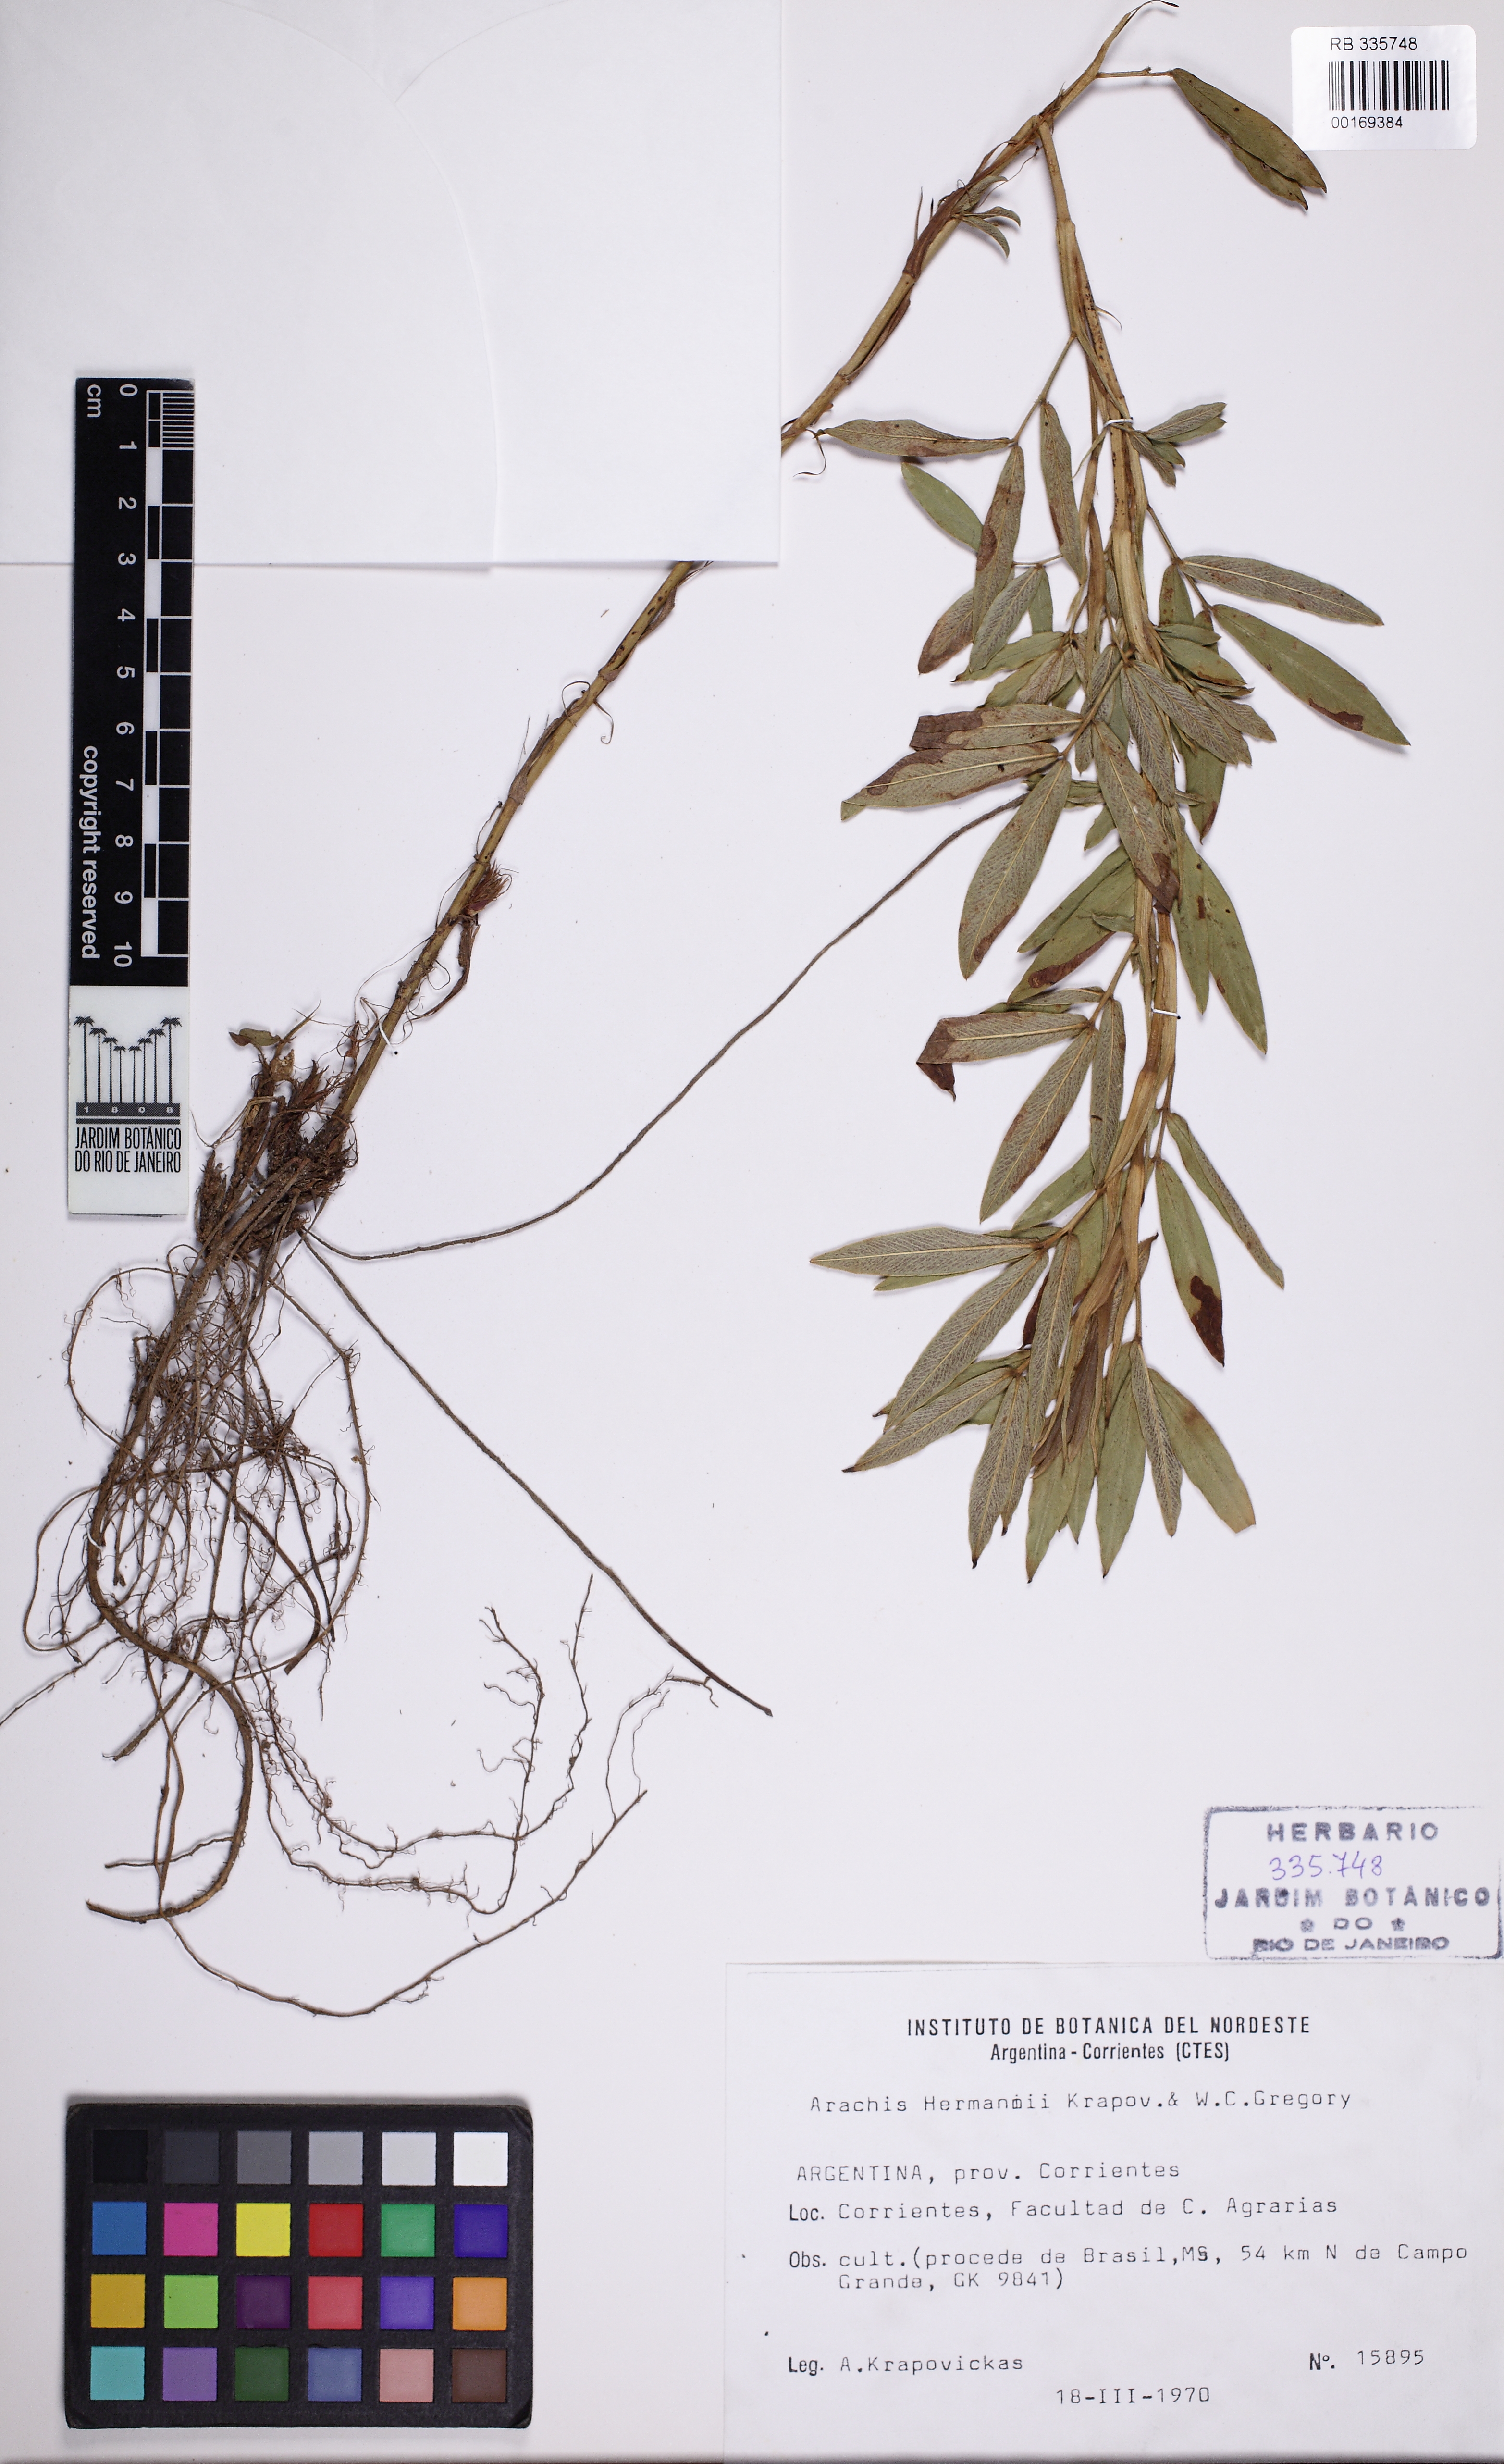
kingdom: Plantae
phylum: Tracheophyta
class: Magnoliopsida
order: Fabales
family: Fabaceae
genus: Arachis
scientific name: Arachis hermannii
